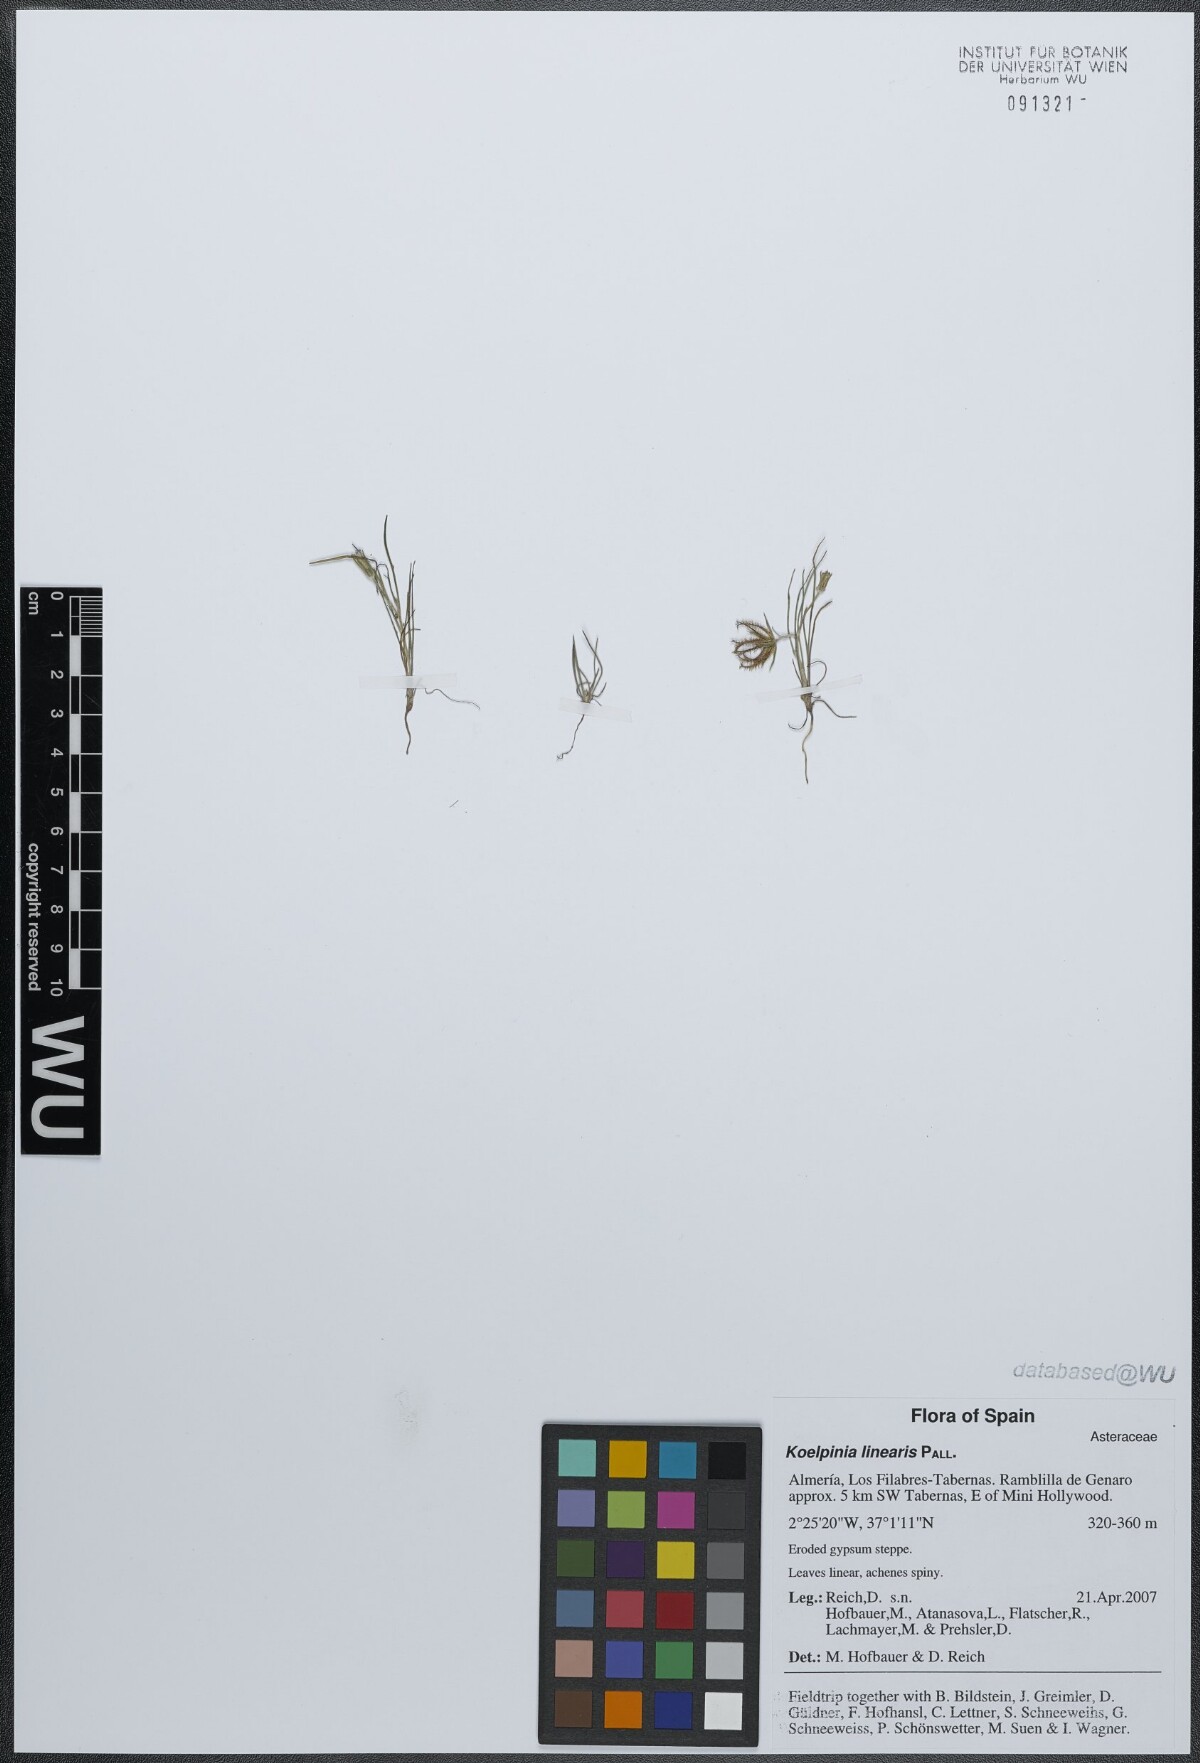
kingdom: Plantae
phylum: Tracheophyta
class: Magnoliopsida
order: Asterales
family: Asteraceae
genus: Koelpinia
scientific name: Koelpinia linearis
